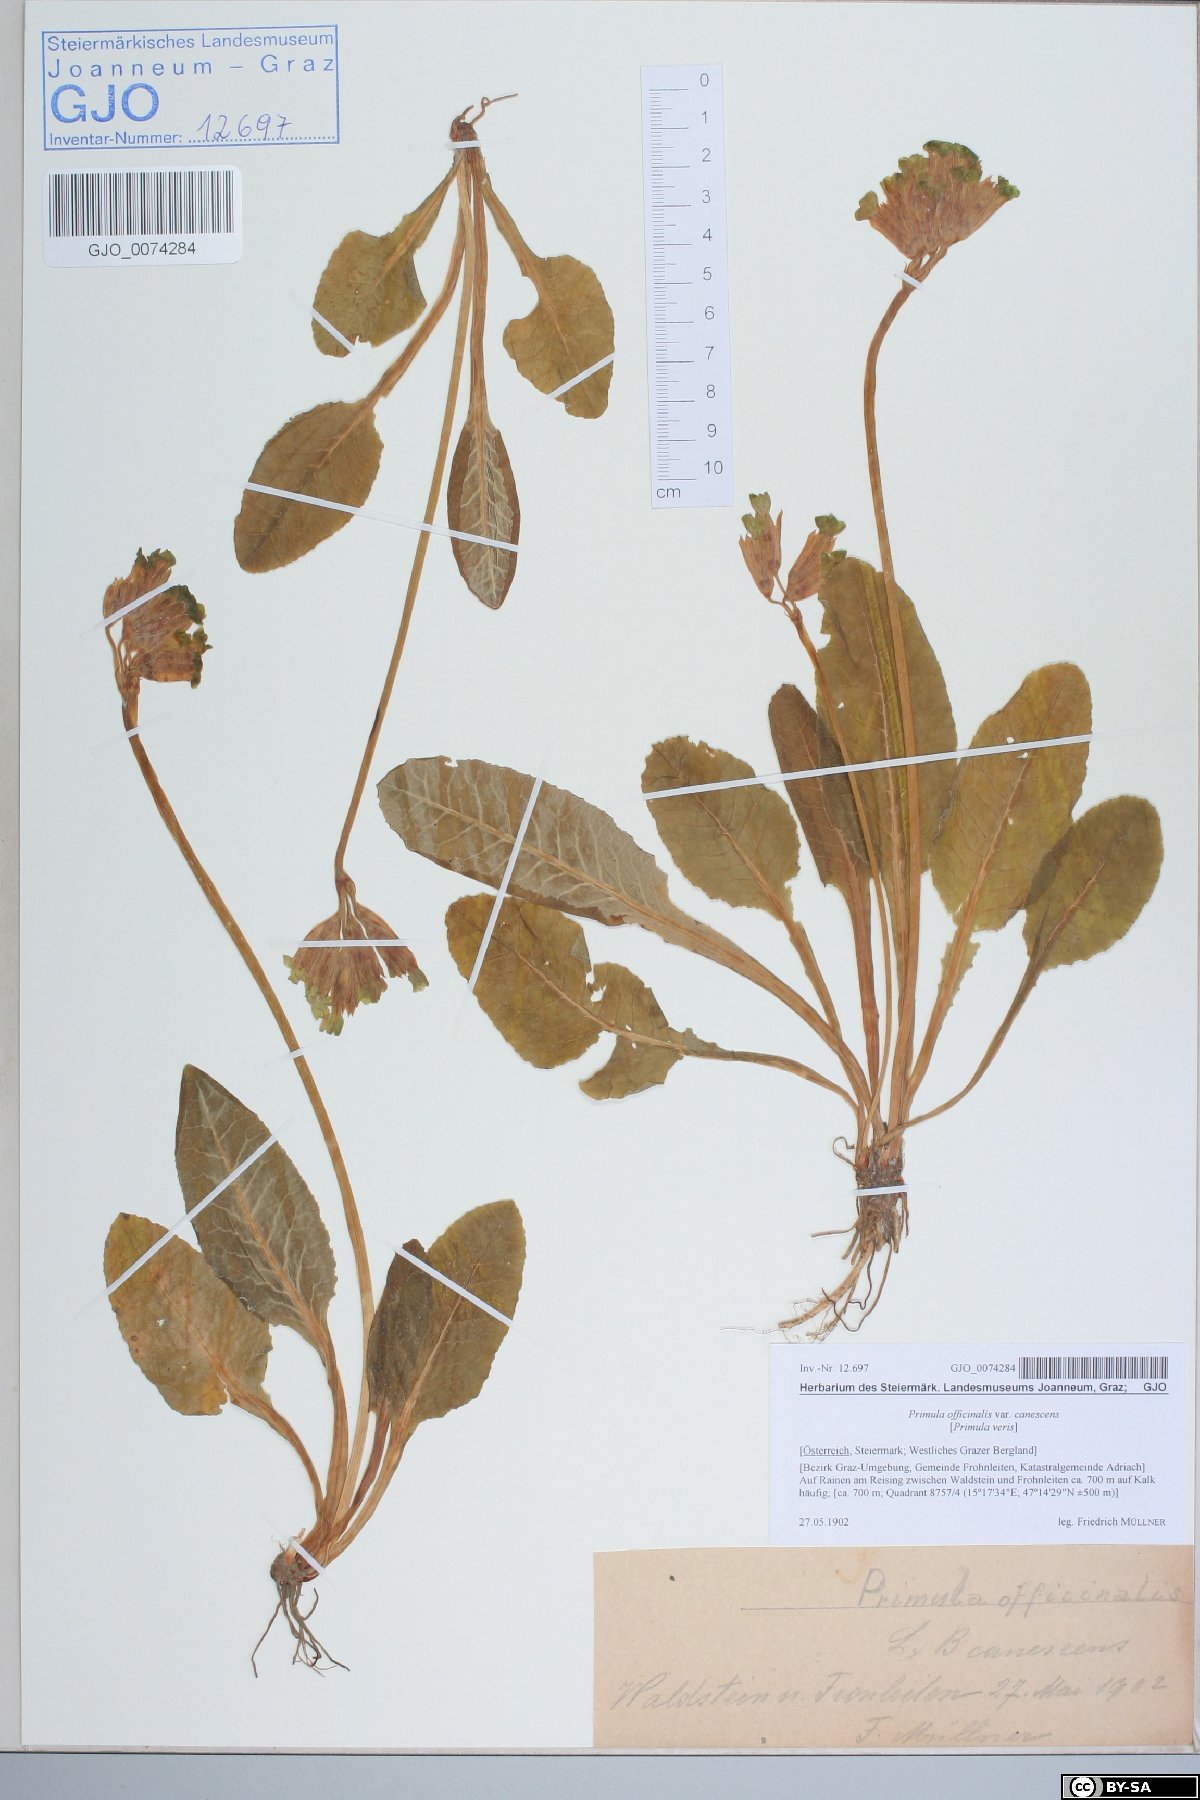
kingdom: Plantae
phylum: Tracheophyta
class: Magnoliopsida
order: Ericales
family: Primulaceae
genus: Primula
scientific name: Primula veris
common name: Cowslip
